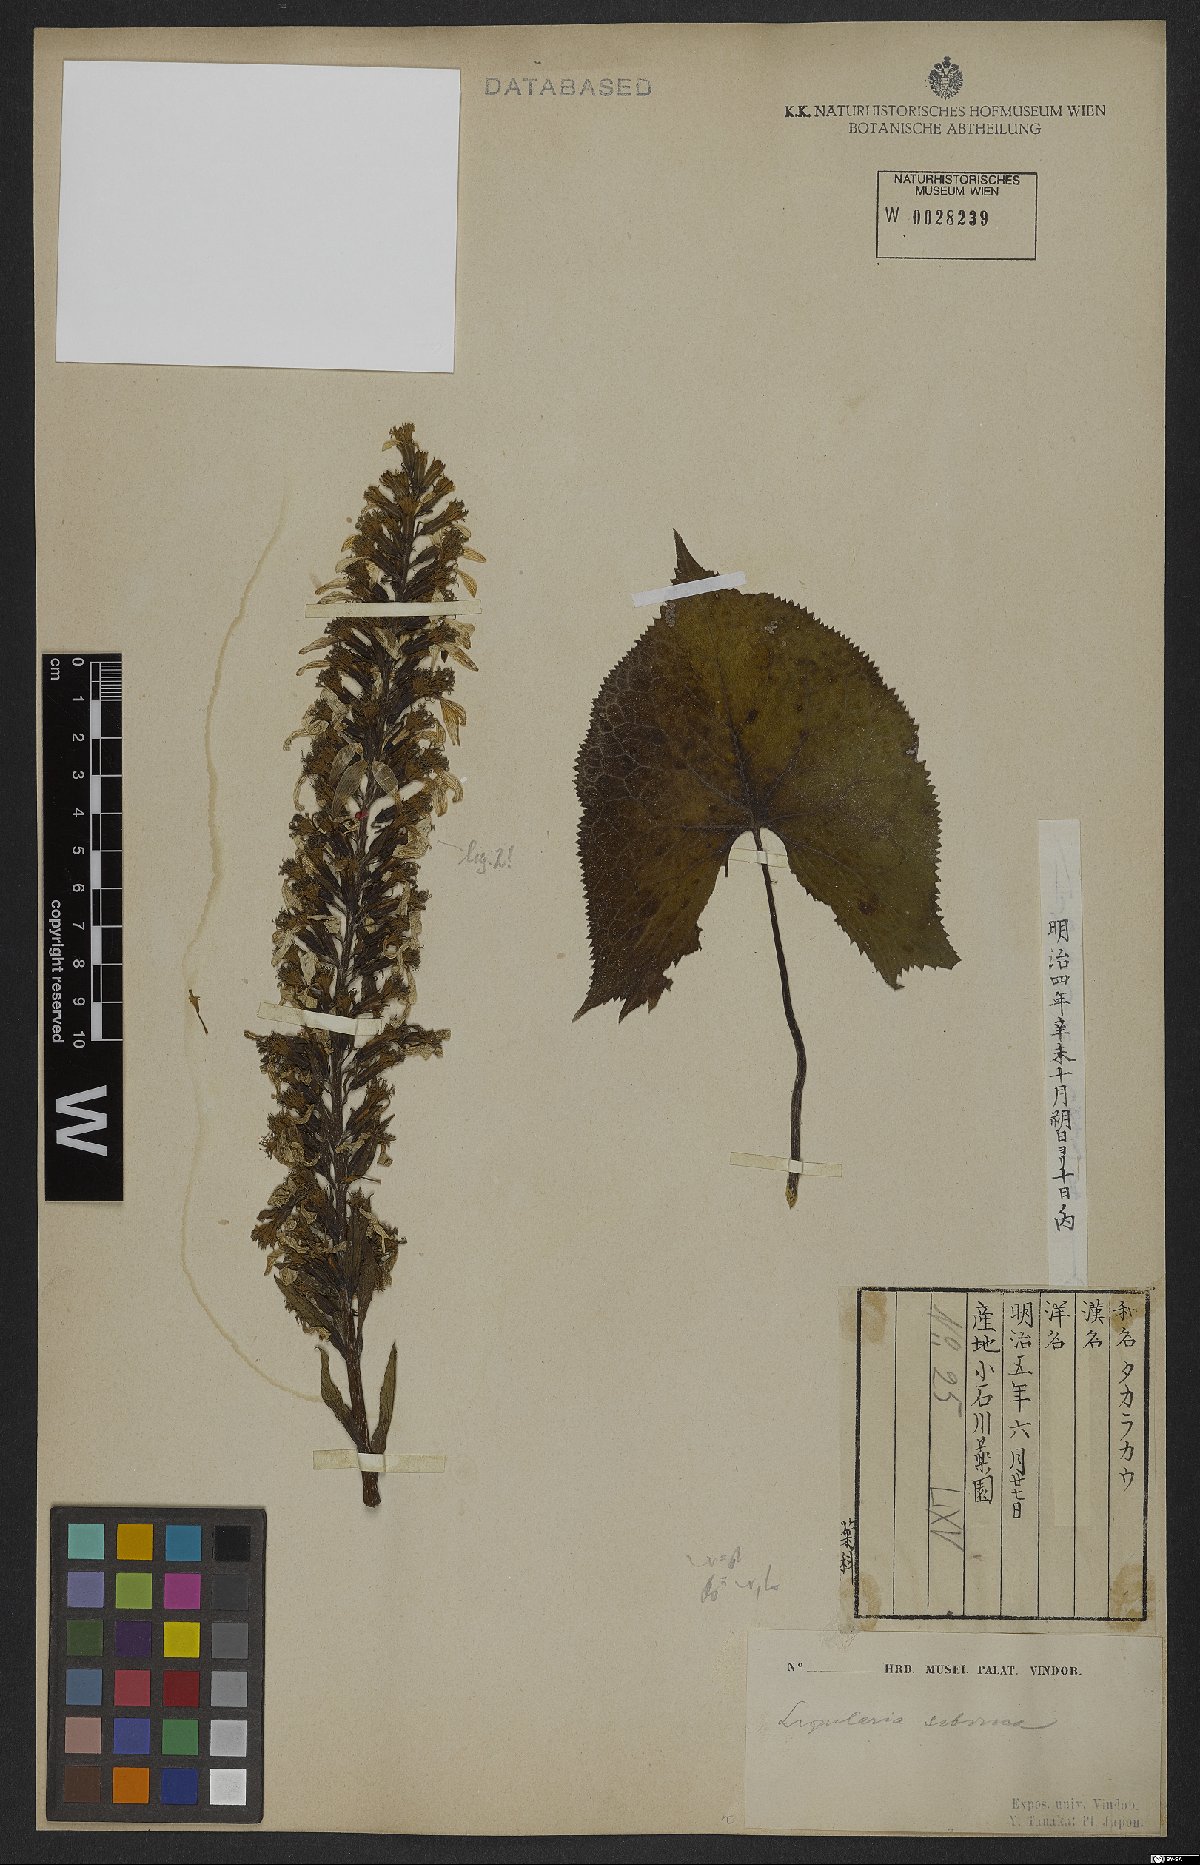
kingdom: Plantae
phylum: Tracheophyta
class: Magnoliopsida
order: Asterales
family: Asteraceae
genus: Ligularia
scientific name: Ligularia sibirica
